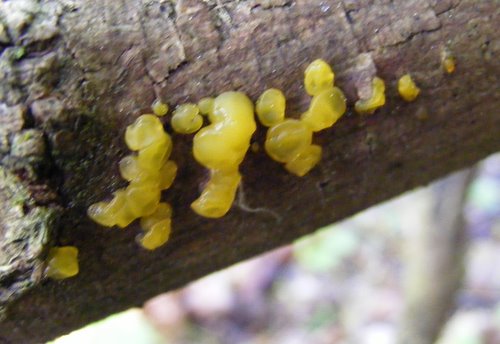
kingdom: Fungi
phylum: Basidiomycota
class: Dacrymycetes
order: Dacrymycetales
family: Dacrymycetaceae
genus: Dacrymyces
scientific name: Dacrymyces lacrymalis
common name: rynket tåresvamp
